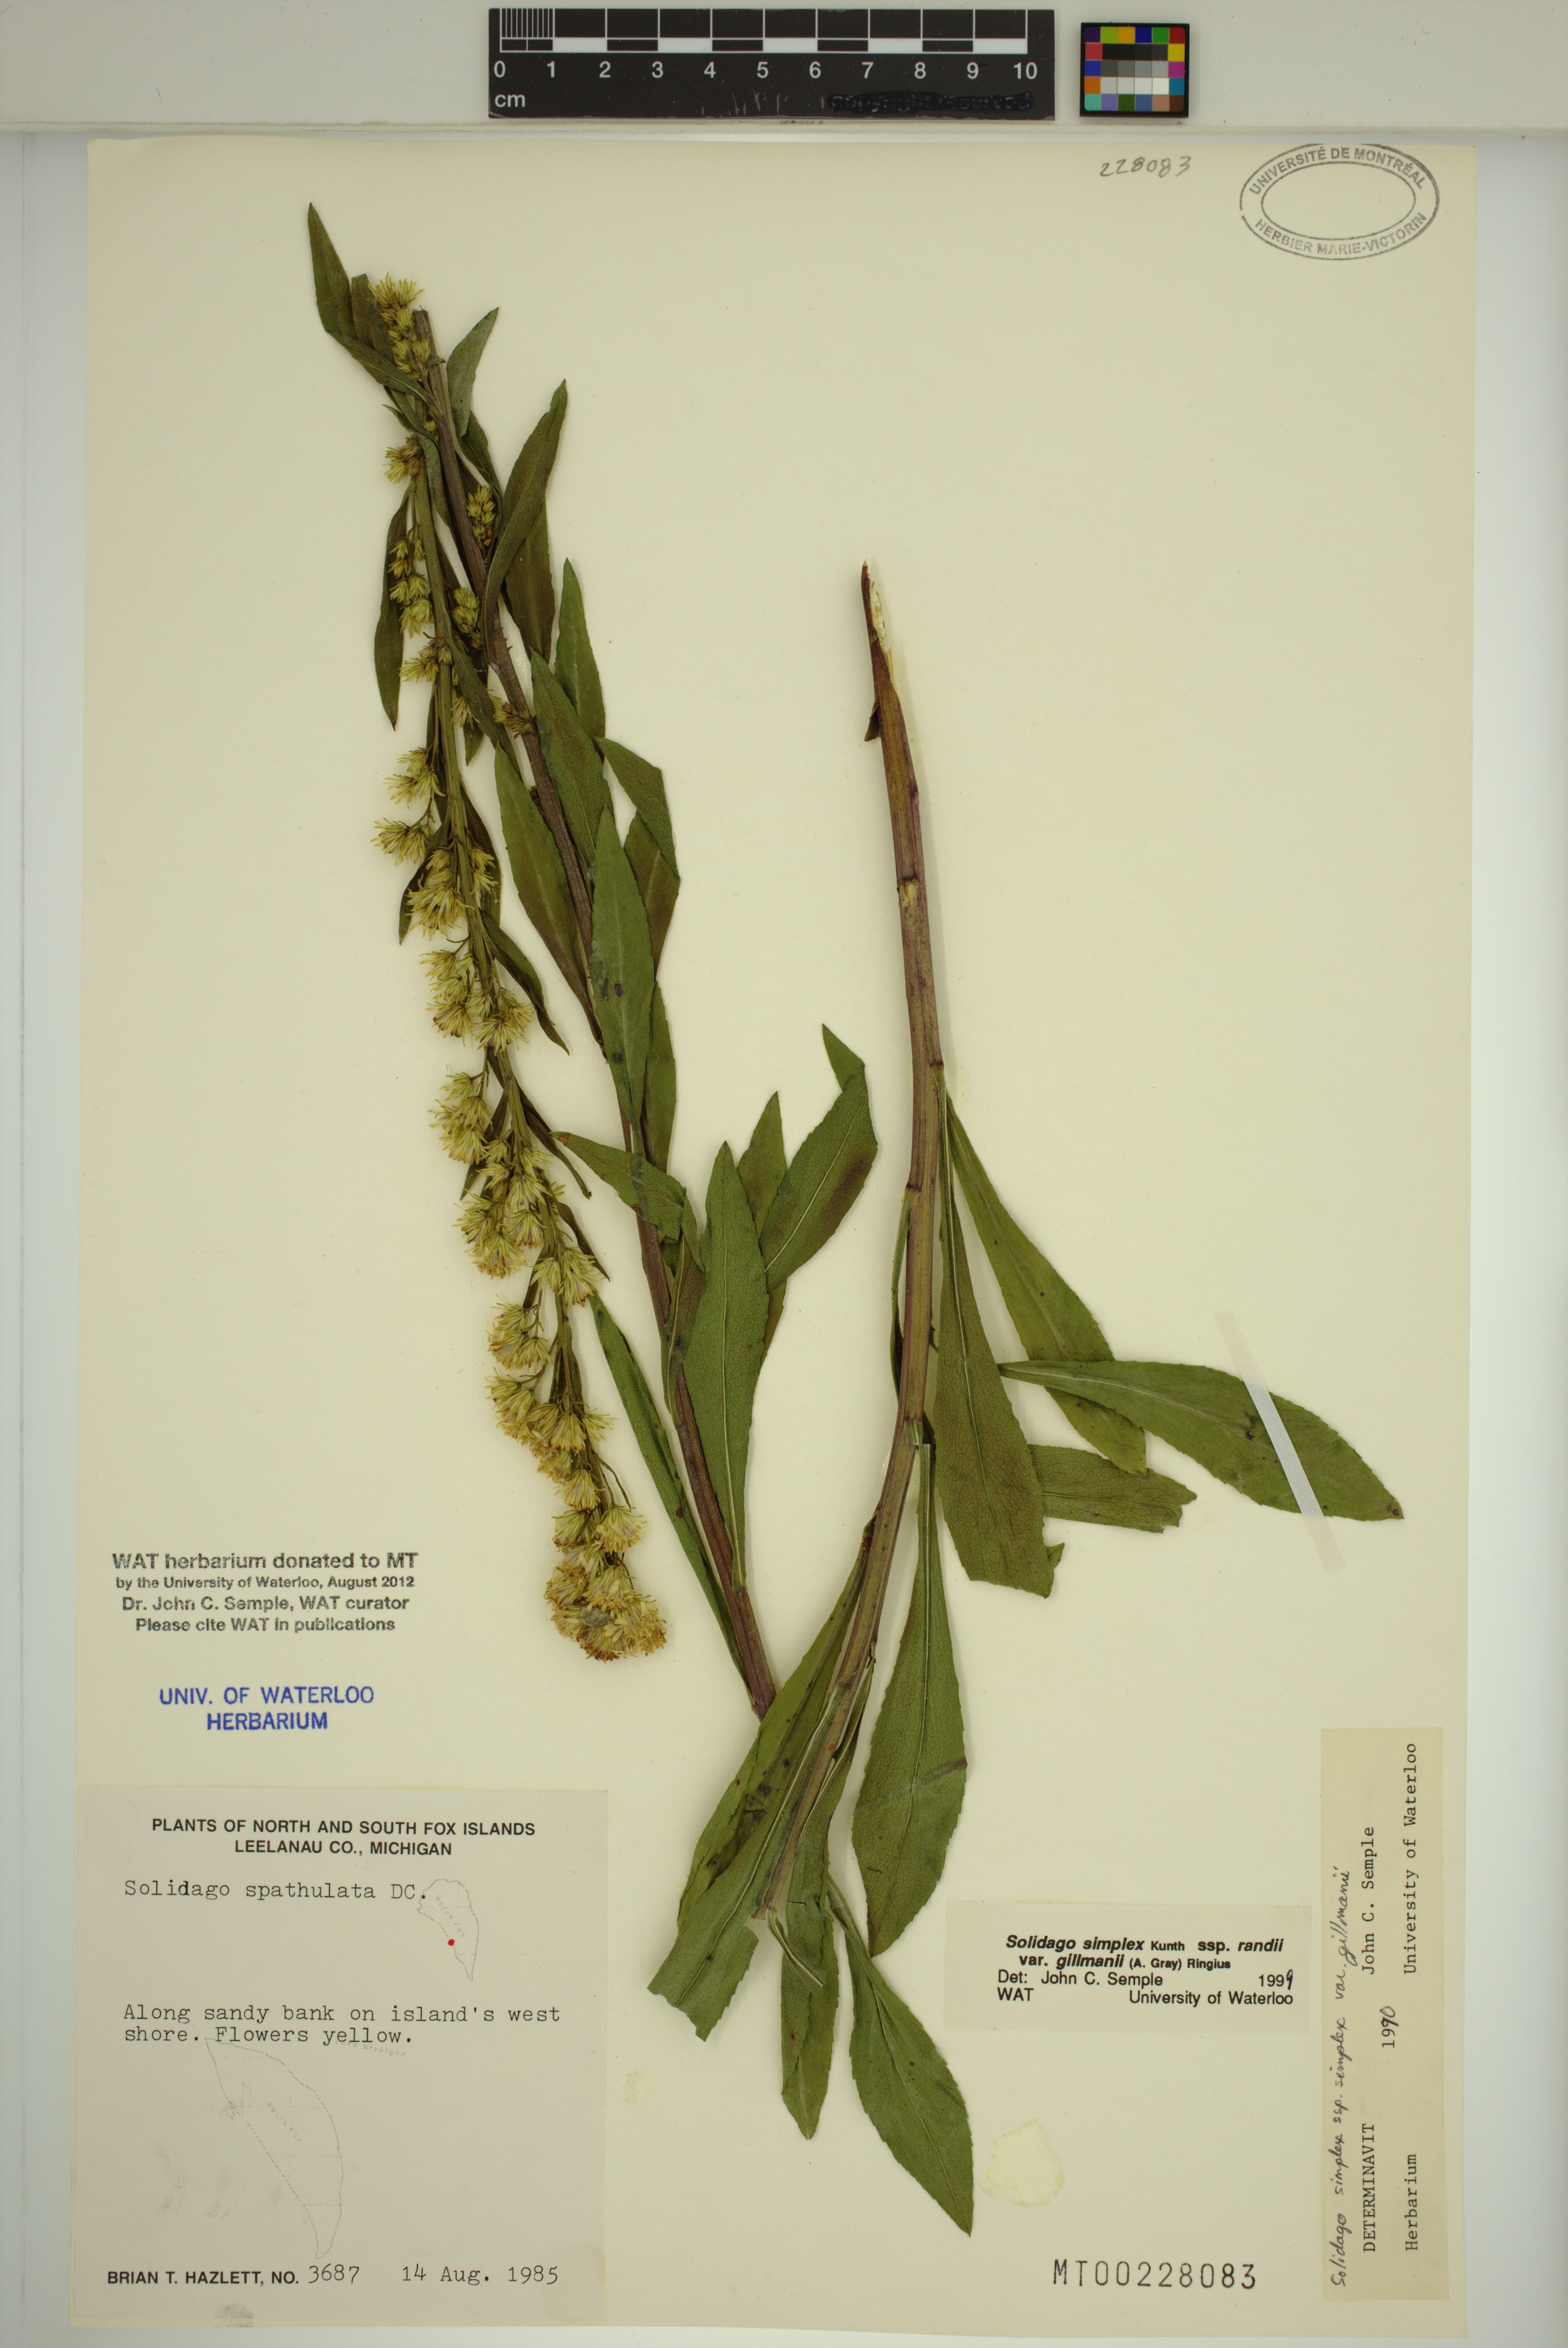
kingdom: Plantae
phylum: Tracheophyta
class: Magnoliopsida
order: Asterales
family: Asteraceae
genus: Solidago
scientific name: Solidago gillmanii
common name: Gillman's goldenrod
